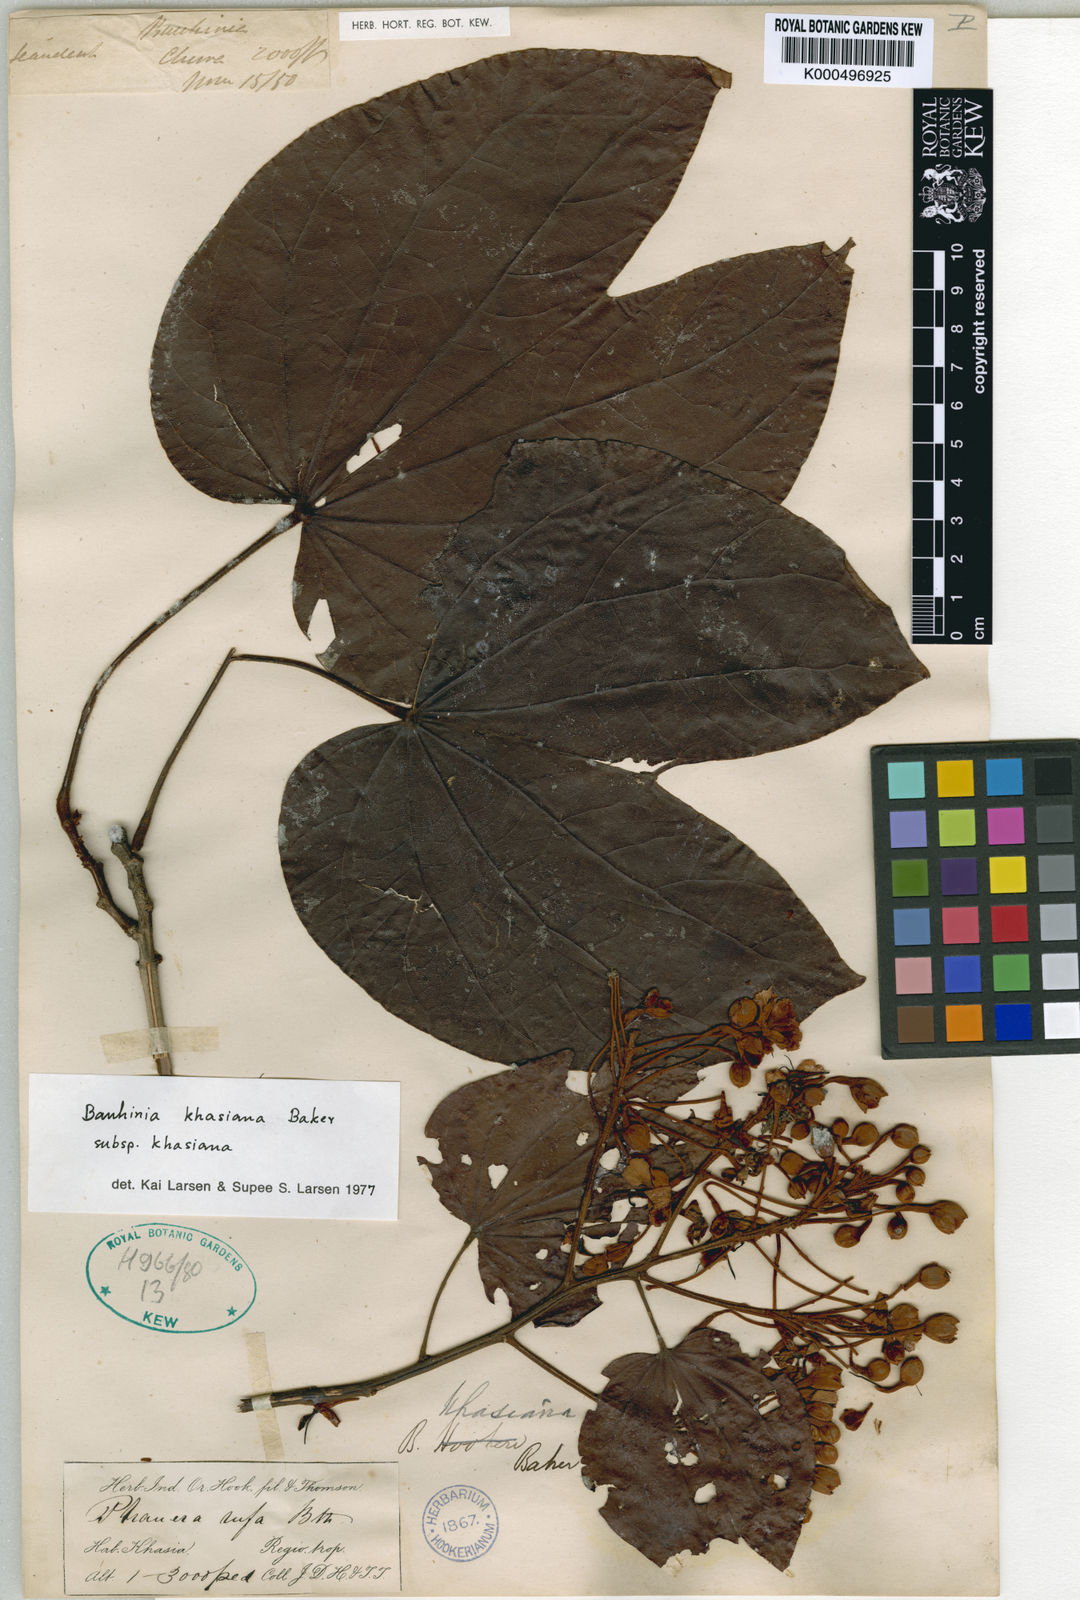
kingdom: Plantae
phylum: Tracheophyta
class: Magnoliopsida
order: Fabales
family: Fabaceae
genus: Phanera
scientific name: Phanera khasiana
